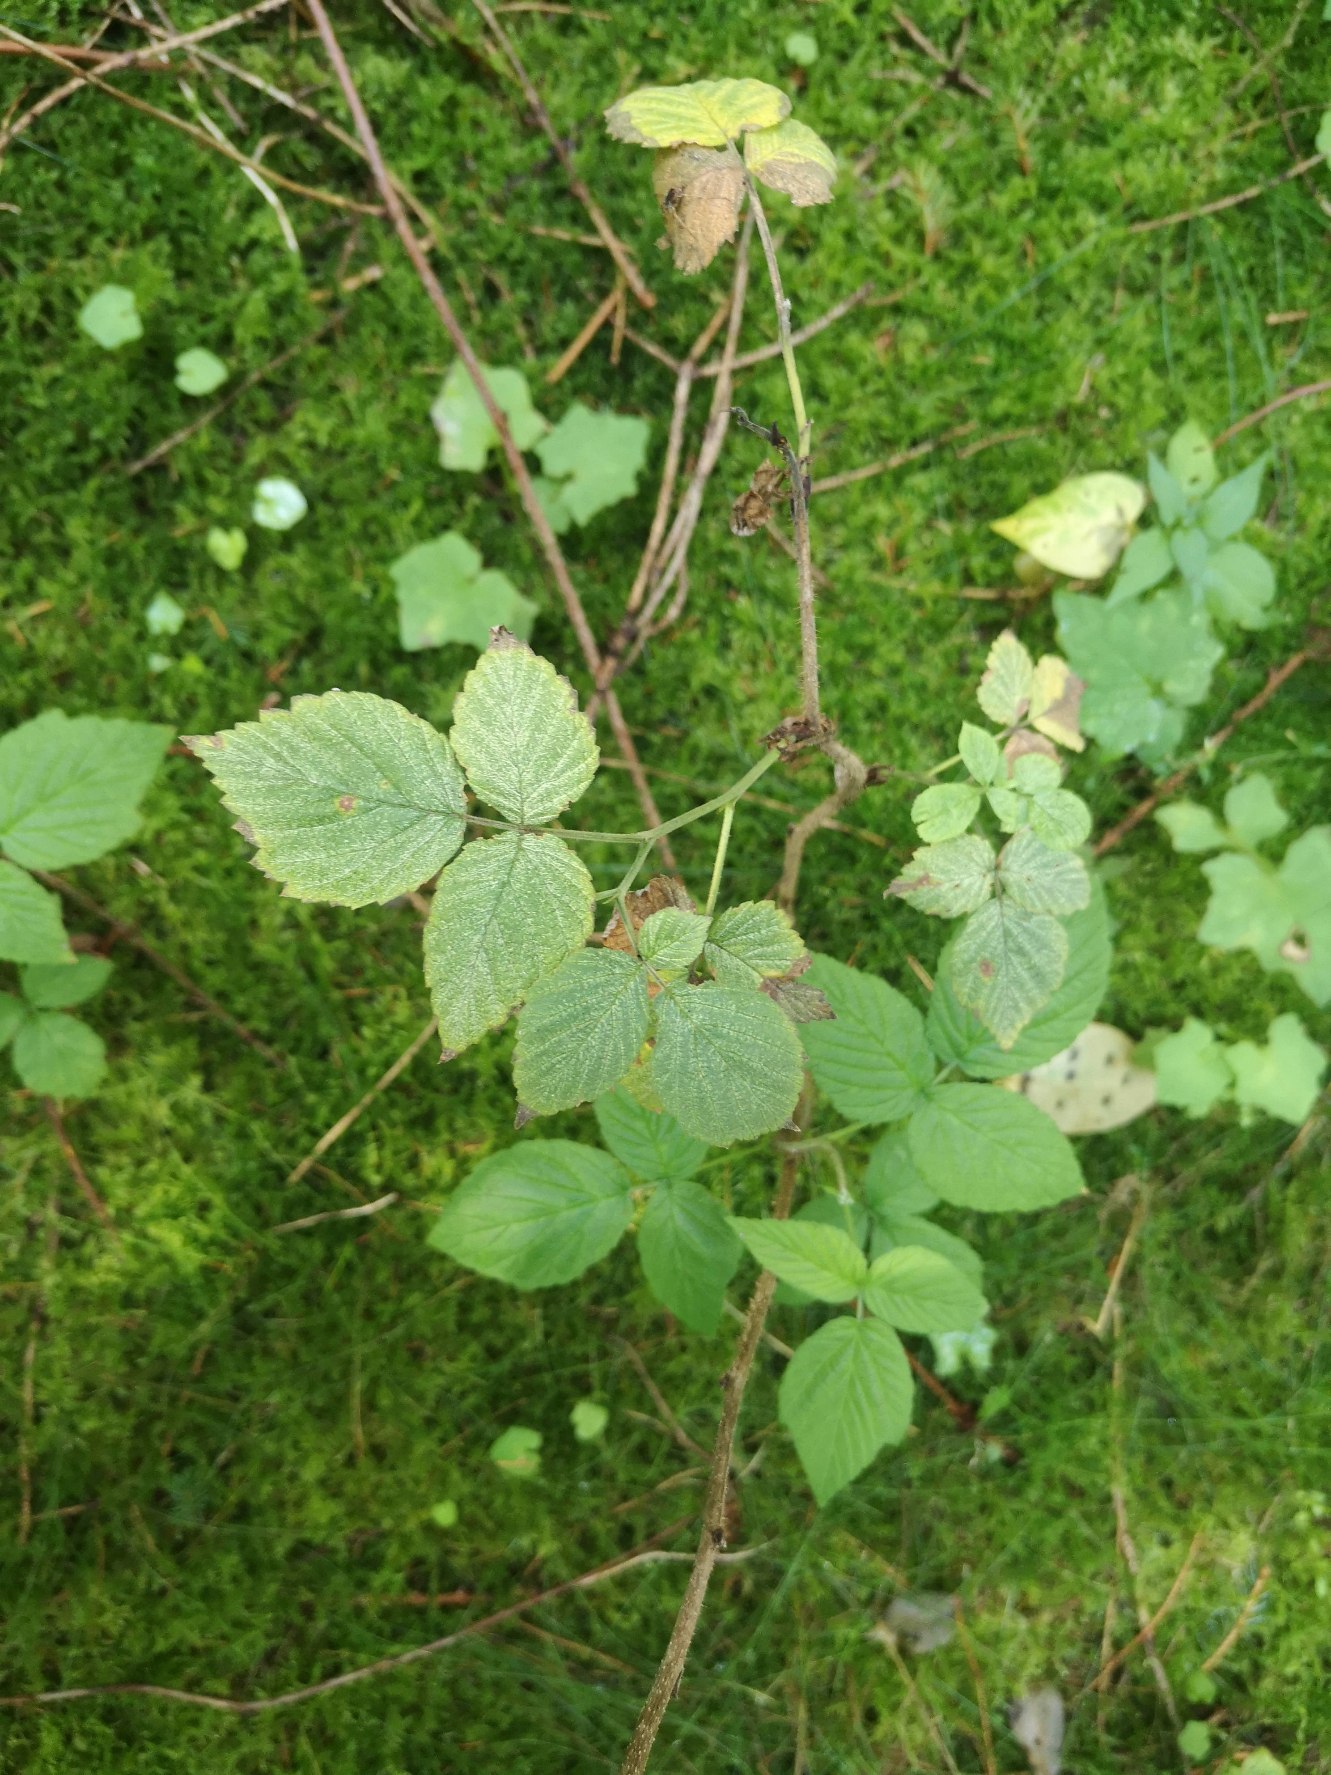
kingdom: Plantae
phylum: Tracheophyta
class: Magnoliopsida
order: Rosales
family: Rosaceae
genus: Rubus
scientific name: Rubus idaeus
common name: Hindbær
